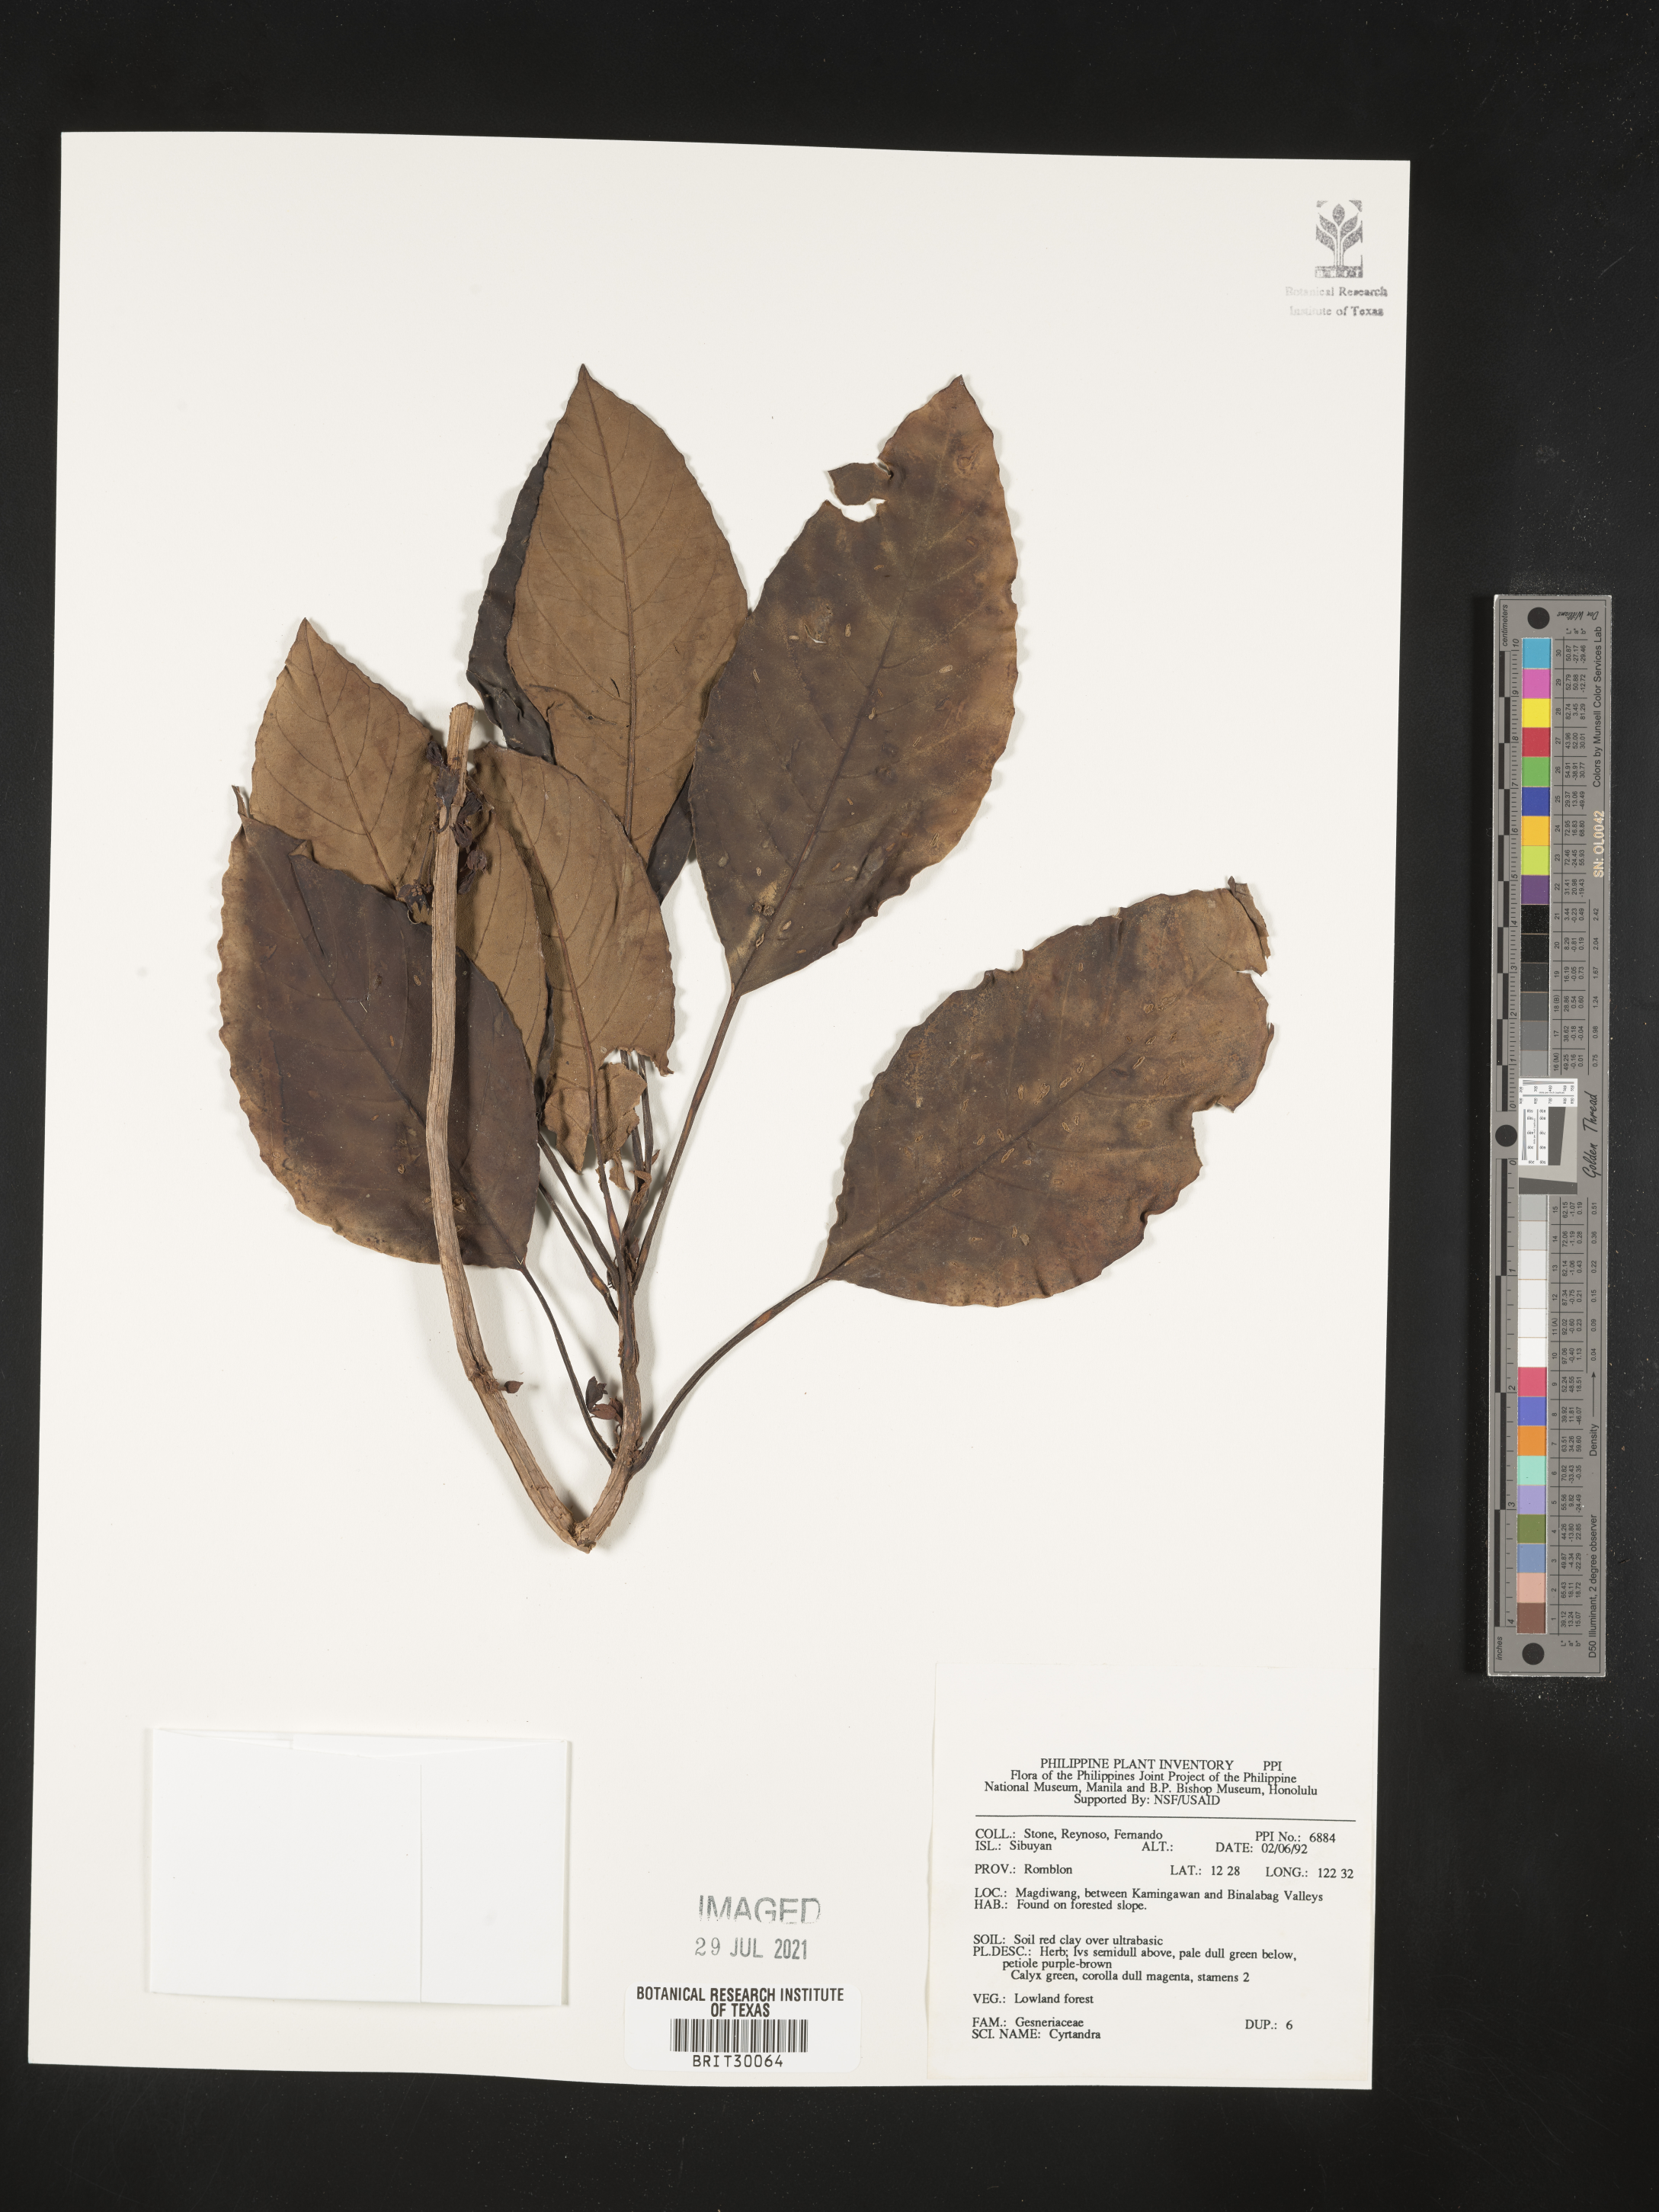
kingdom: Plantae
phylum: Tracheophyta
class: Magnoliopsida
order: Lamiales
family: Gesneriaceae
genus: Cyrtandra
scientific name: Cyrtandra
